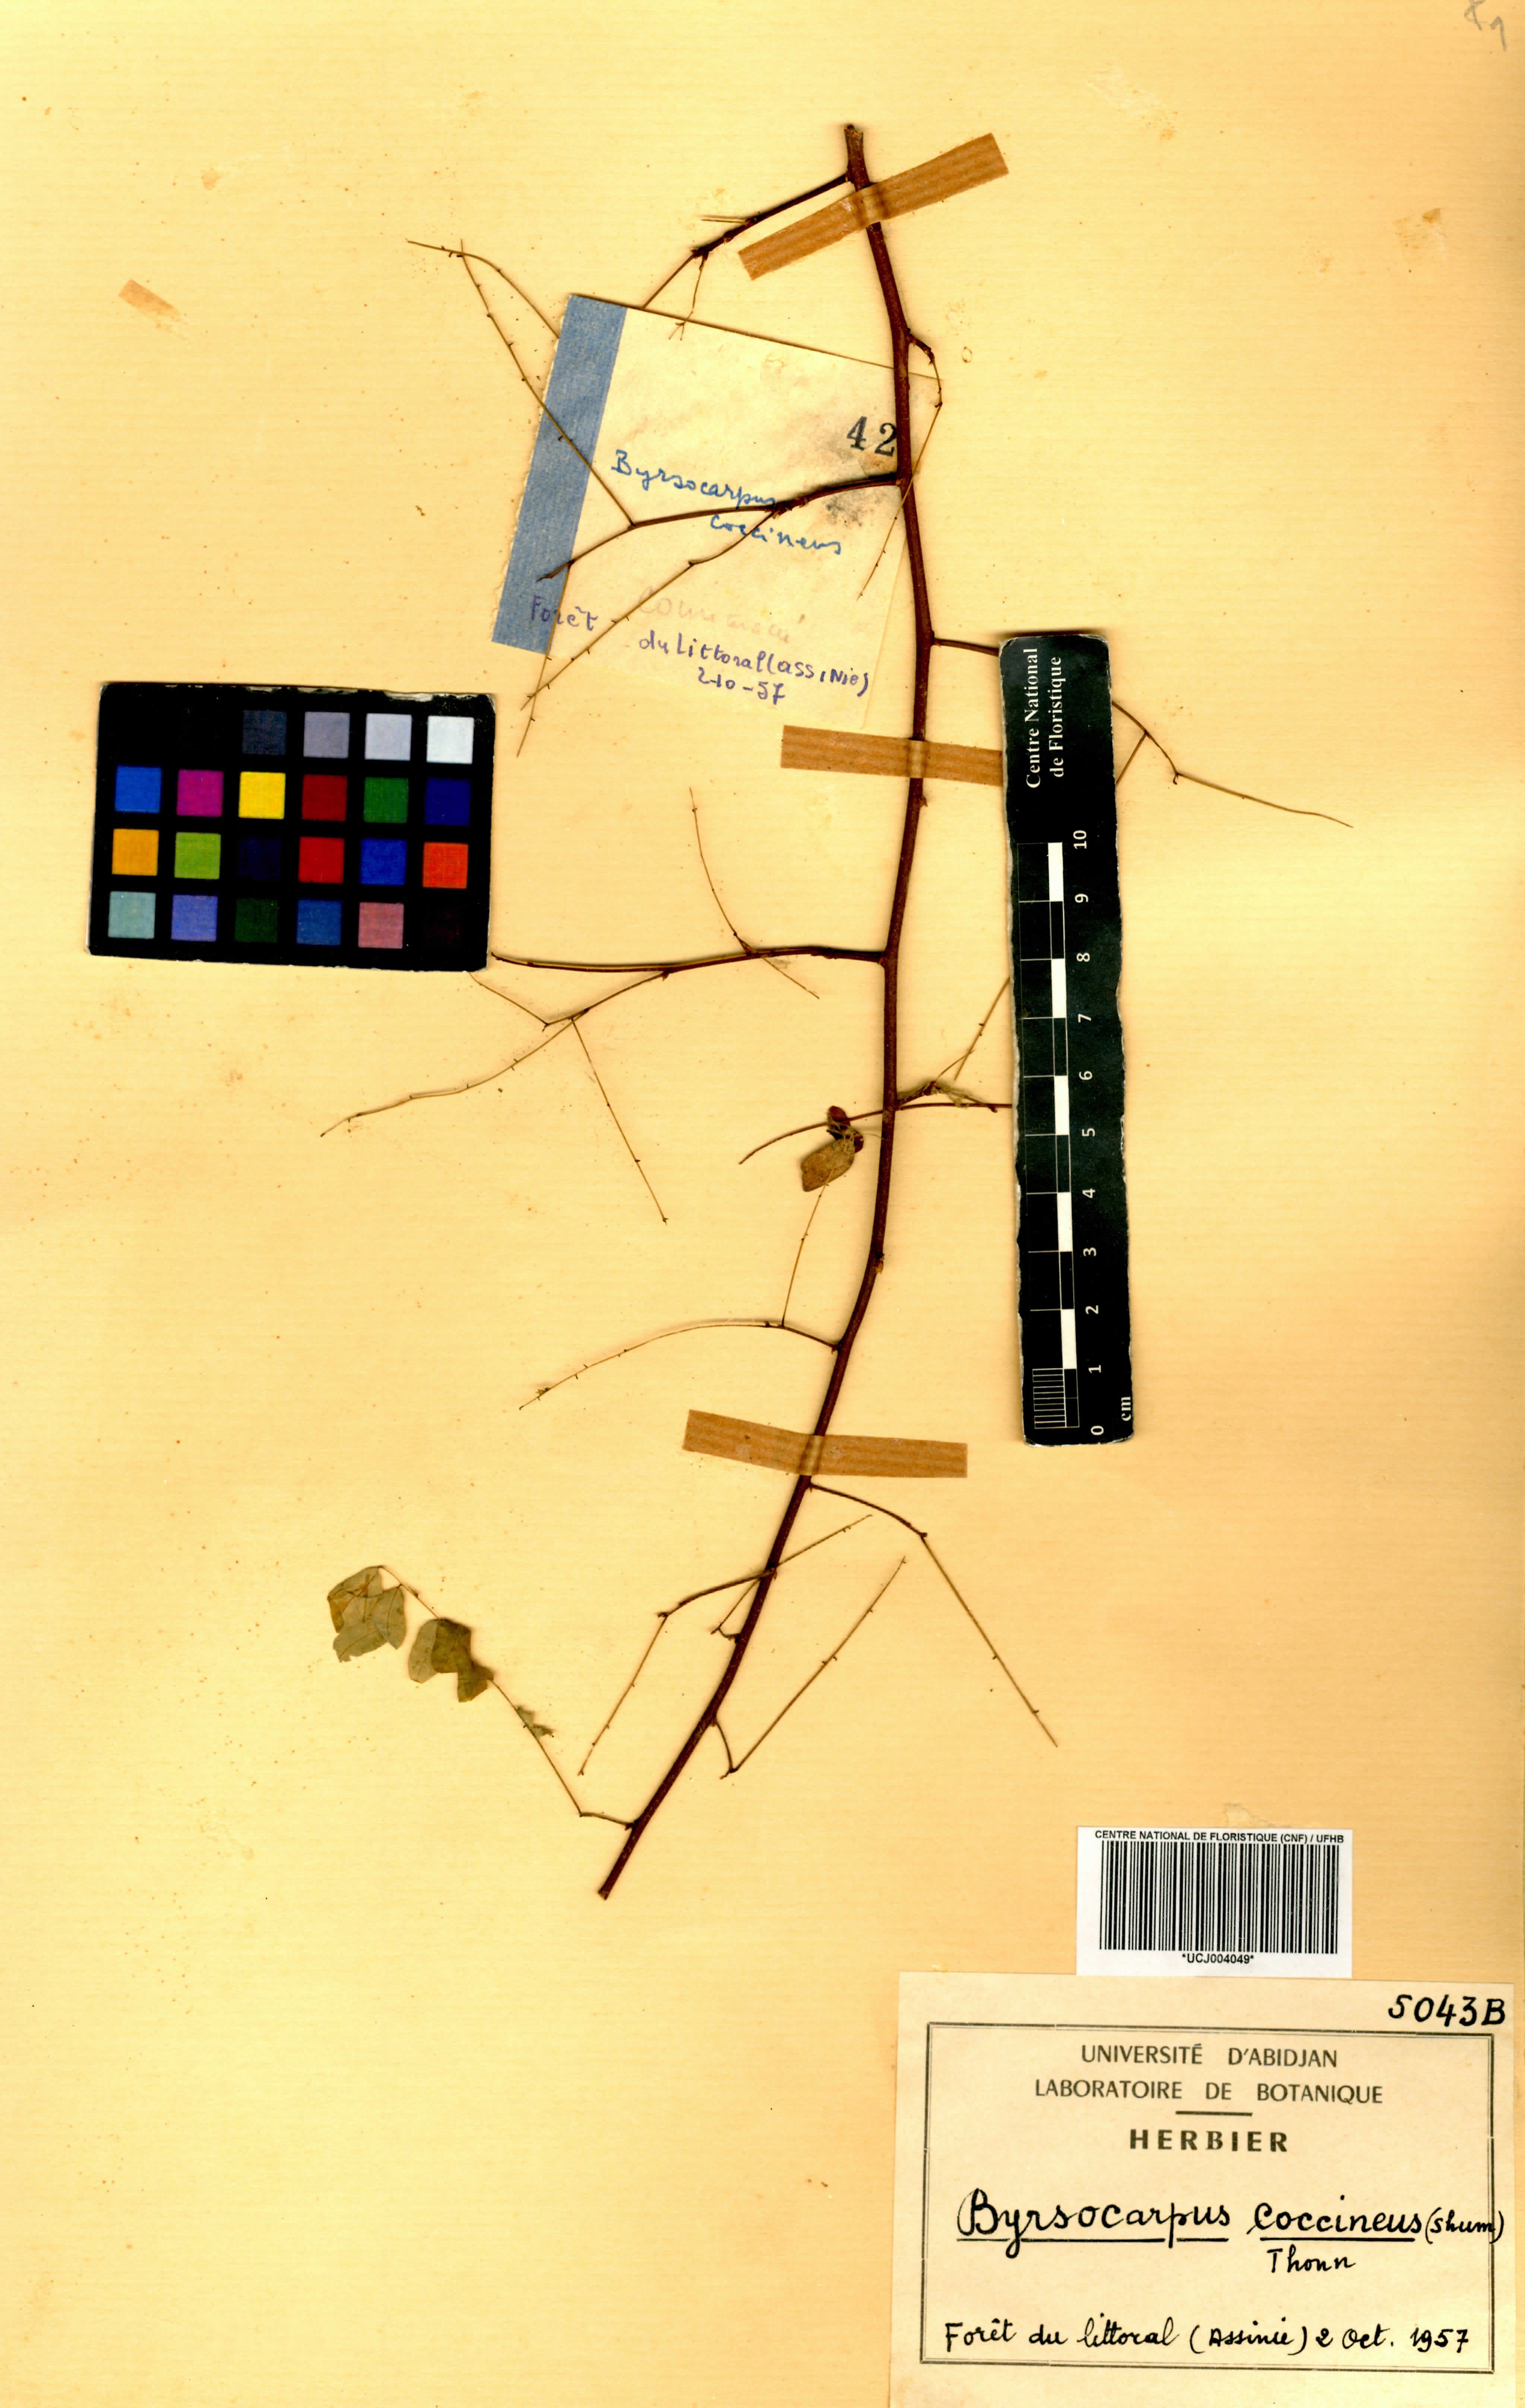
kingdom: Plantae
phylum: Tracheophyta
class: Magnoliopsida
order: Oxalidales
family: Connaraceae
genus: Rourea
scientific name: Rourea coccinea
